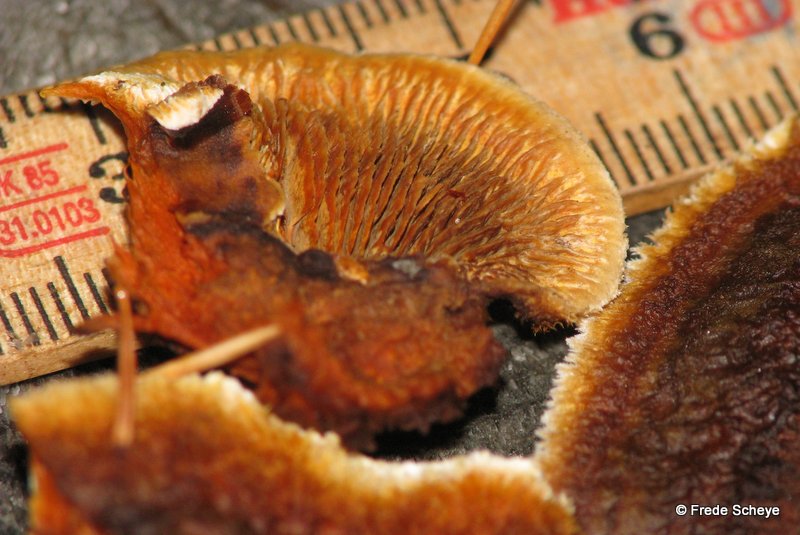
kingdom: Fungi
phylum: Basidiomycota
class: Agaricomycetes
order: Gloeophyllales
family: Gloeophyllaceae
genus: Gloeophyllum
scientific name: Gloeophyllum sepiarium
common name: fyrre-korkhat
